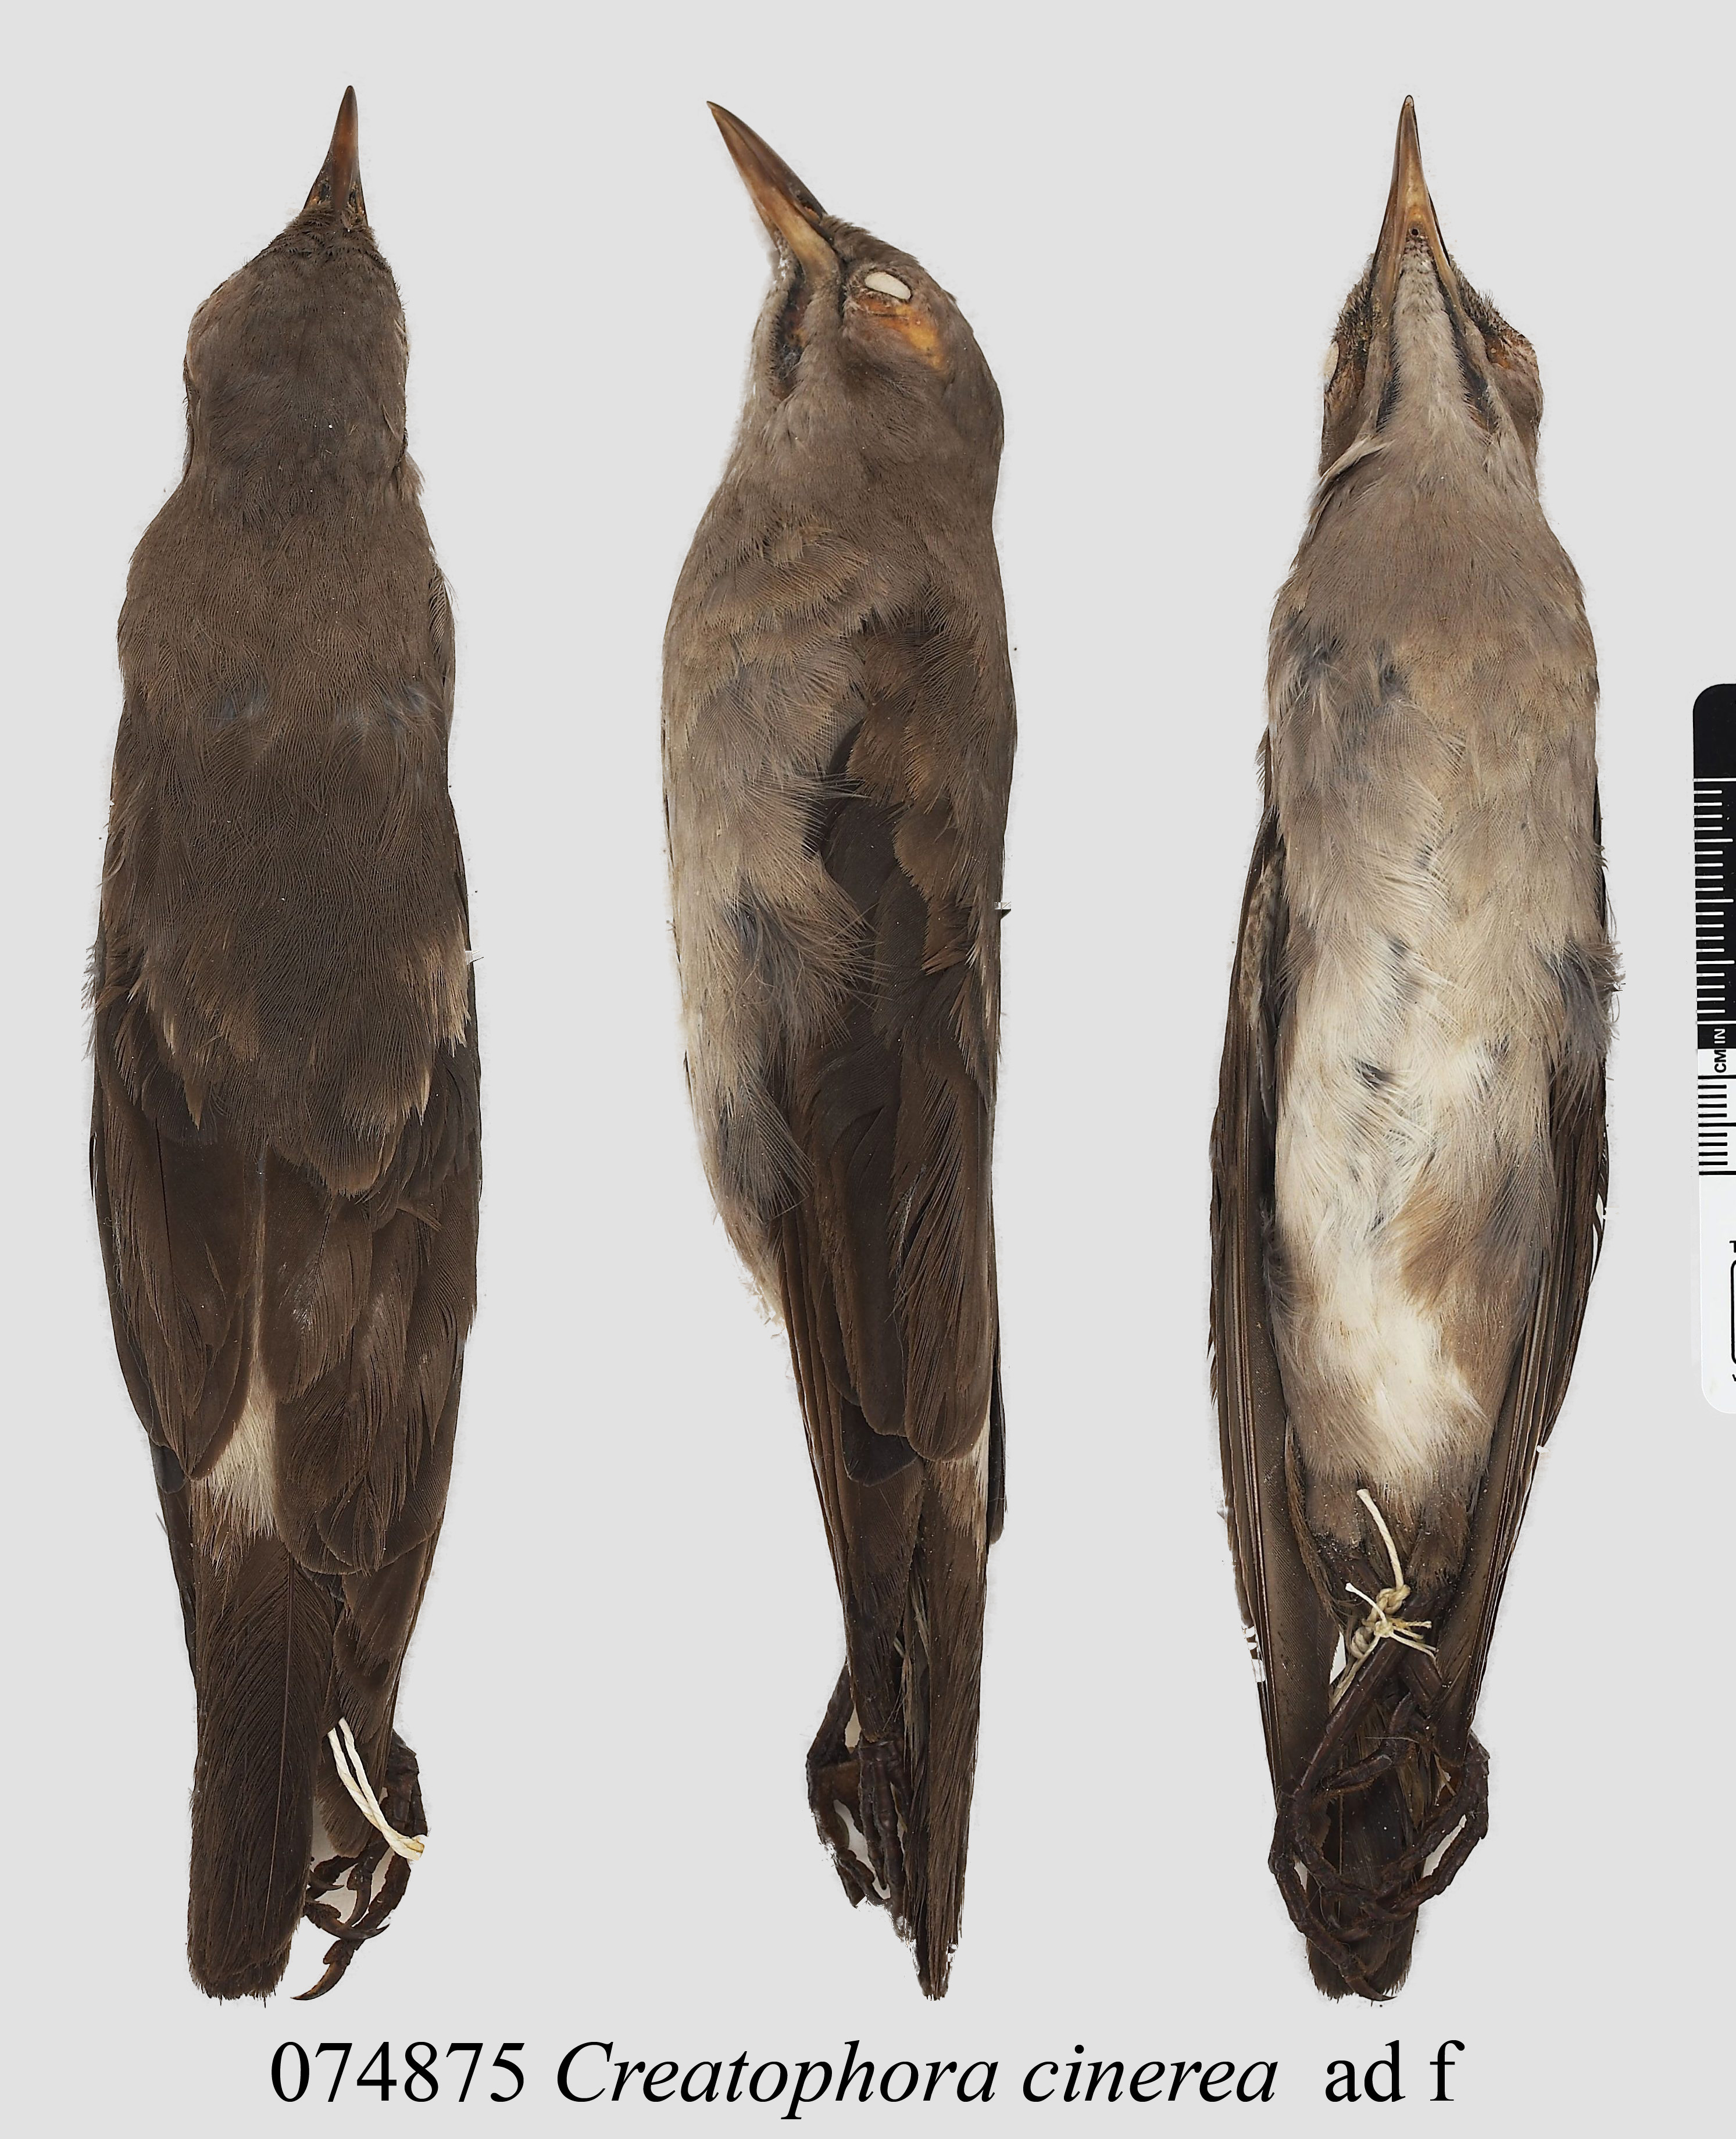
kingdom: Animalia
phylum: Chordata
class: Aves
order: Passeriformes
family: Sturnidae
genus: Creatophora
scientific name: Creatophora cinerea
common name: Wattled starling
